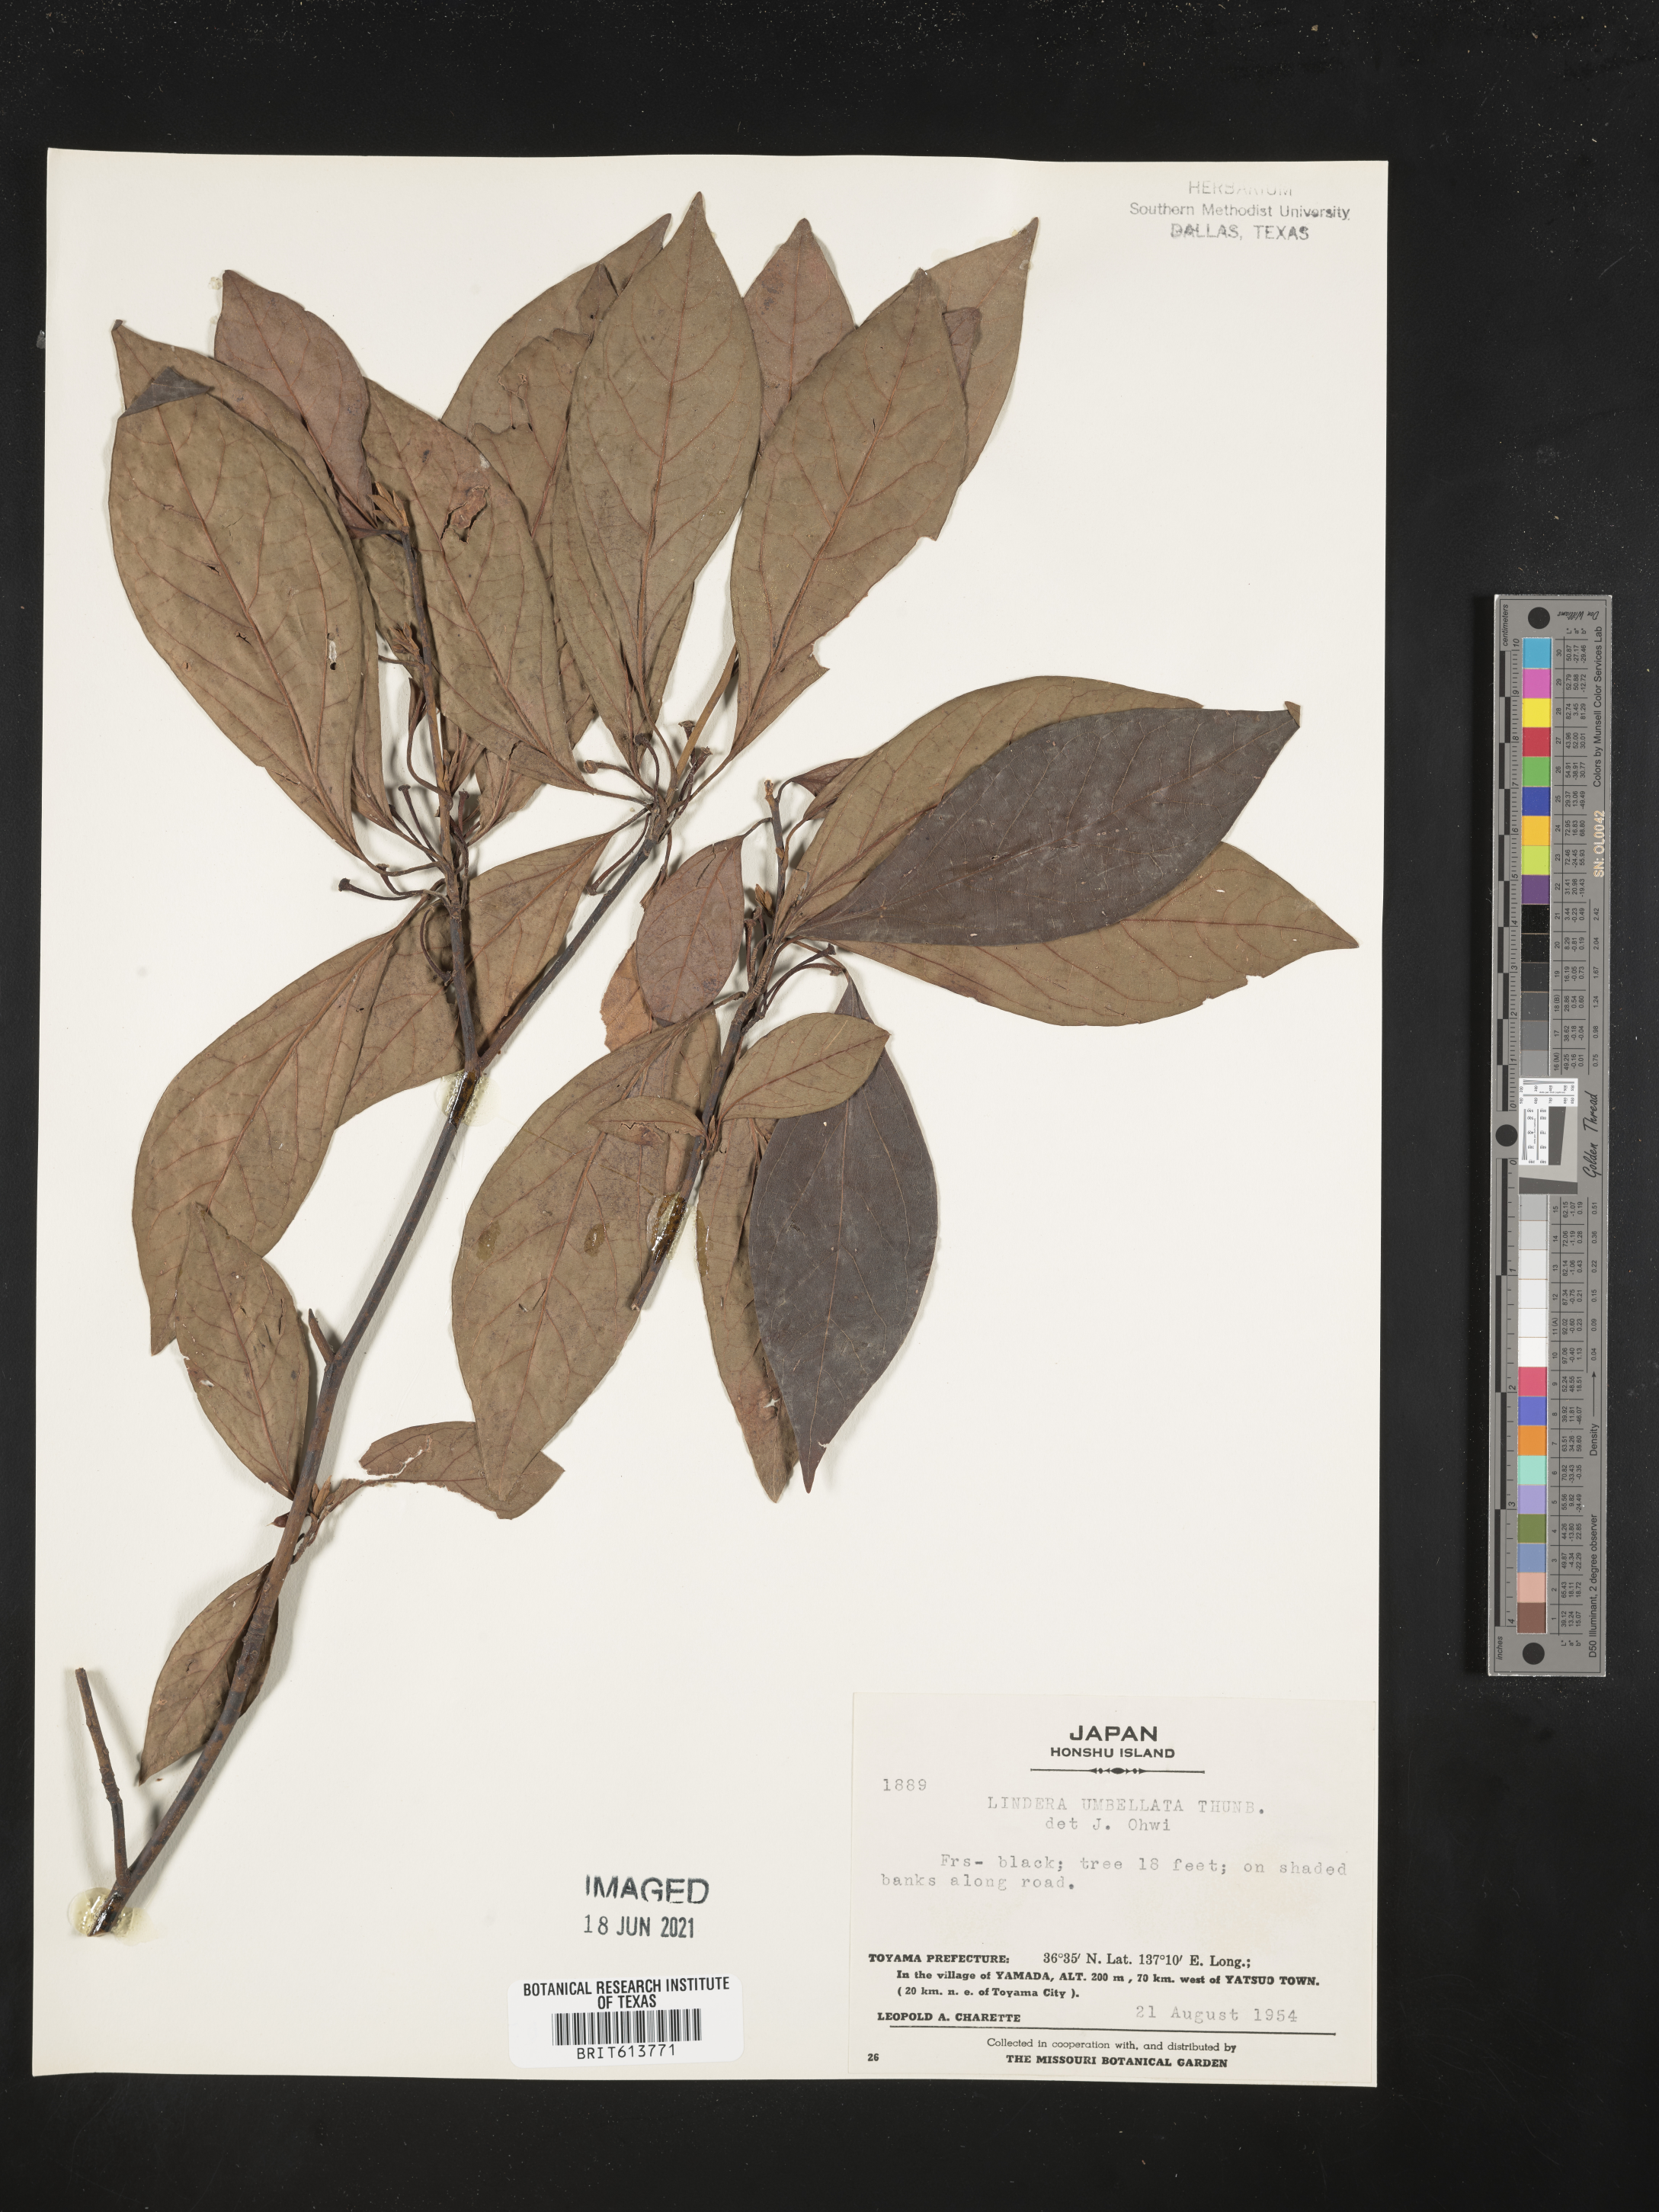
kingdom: Plantae
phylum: Tracheophyta
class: Magnoliopsida
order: Laurales
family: Lauraceae
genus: Lindera
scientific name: Lindera umbellata
